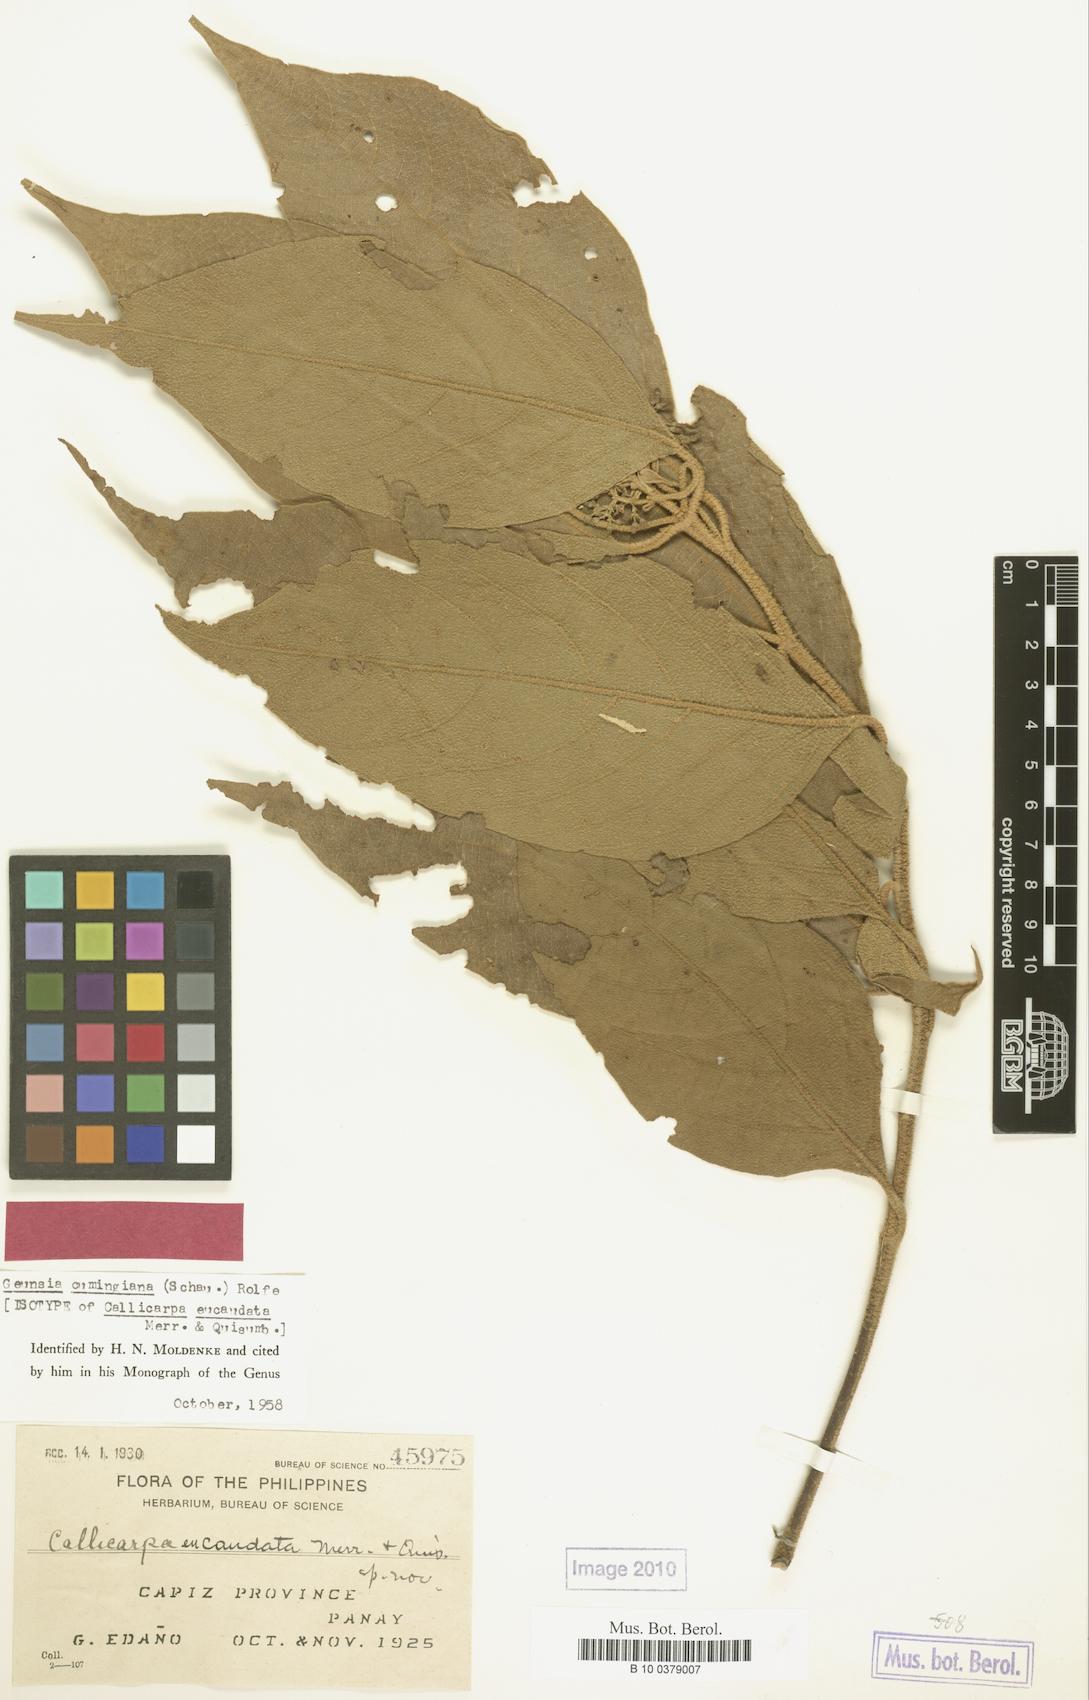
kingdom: Plantae
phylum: Tracheophyta
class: Magnoliopsida
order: Lamiales
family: Lamiaceae
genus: Callicarpa
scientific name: Callicarpa pentandra
